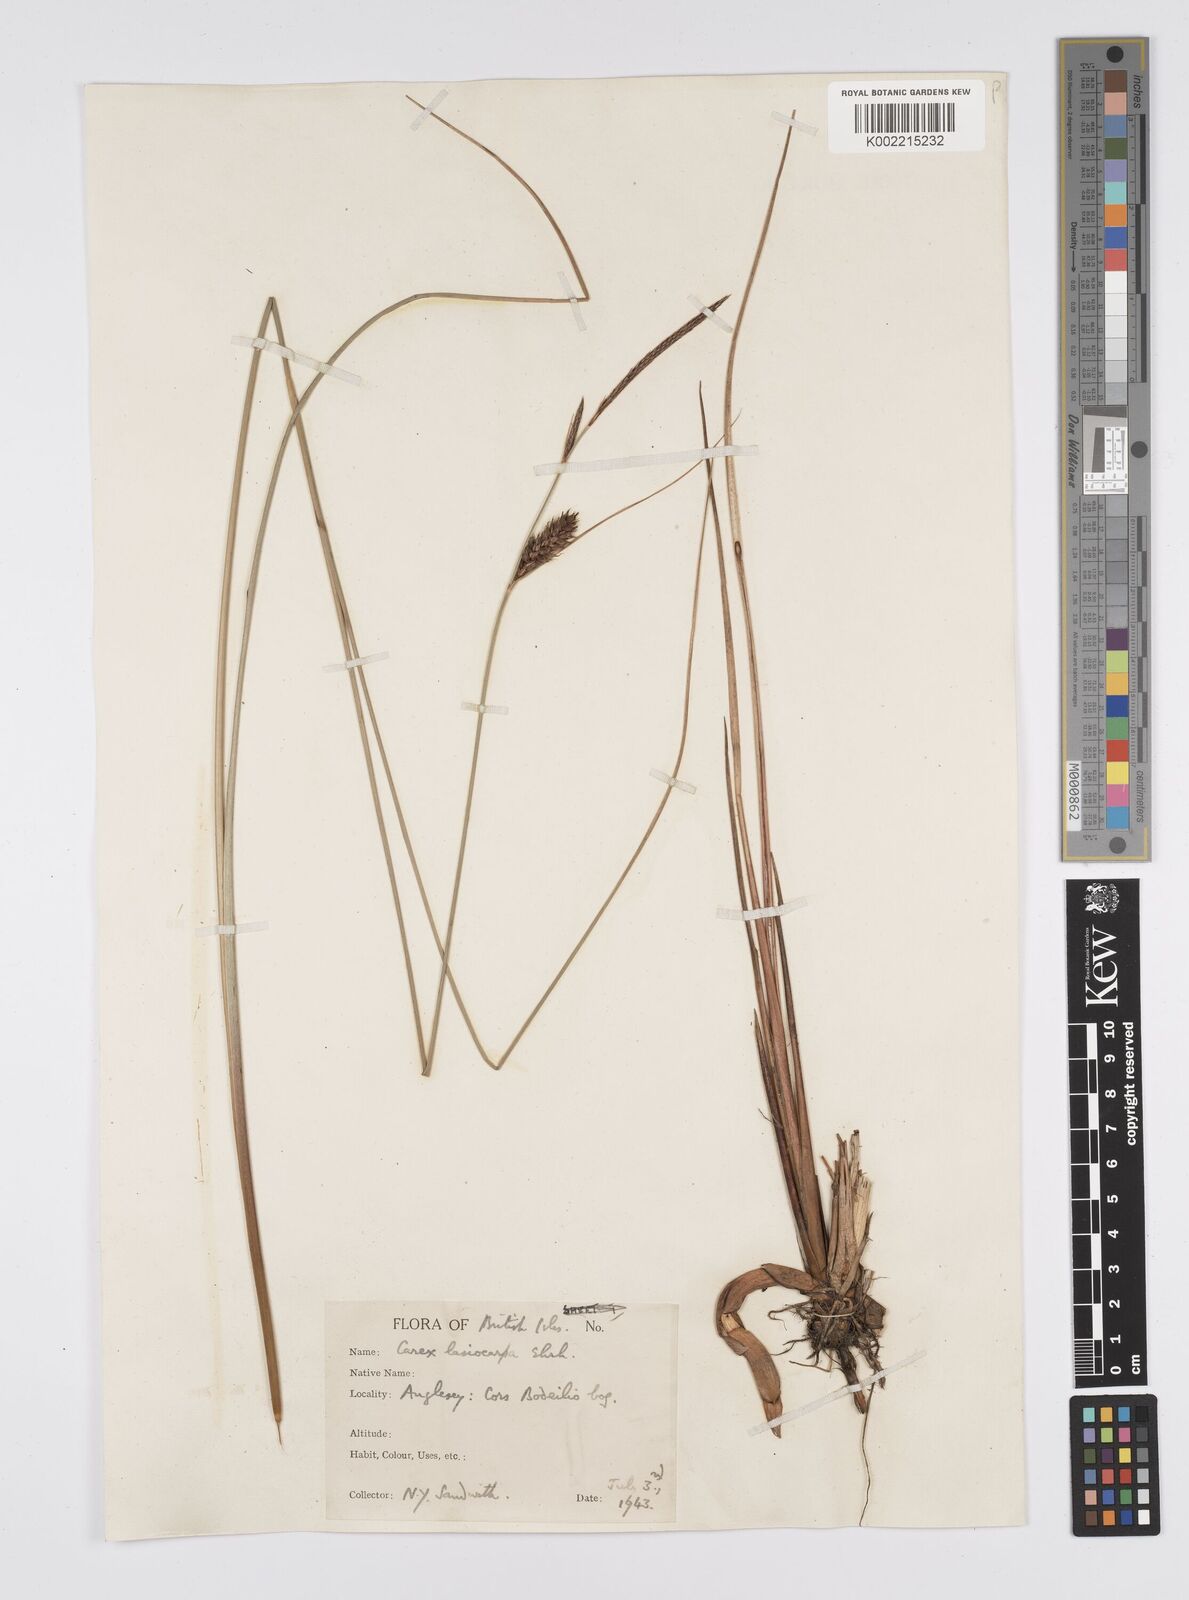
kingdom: Plantae
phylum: Tracheophyta
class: Liliopsida
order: Poales
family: Cyperaceae
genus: Carex
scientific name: Carex lasiocarpa
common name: Slender sedge
